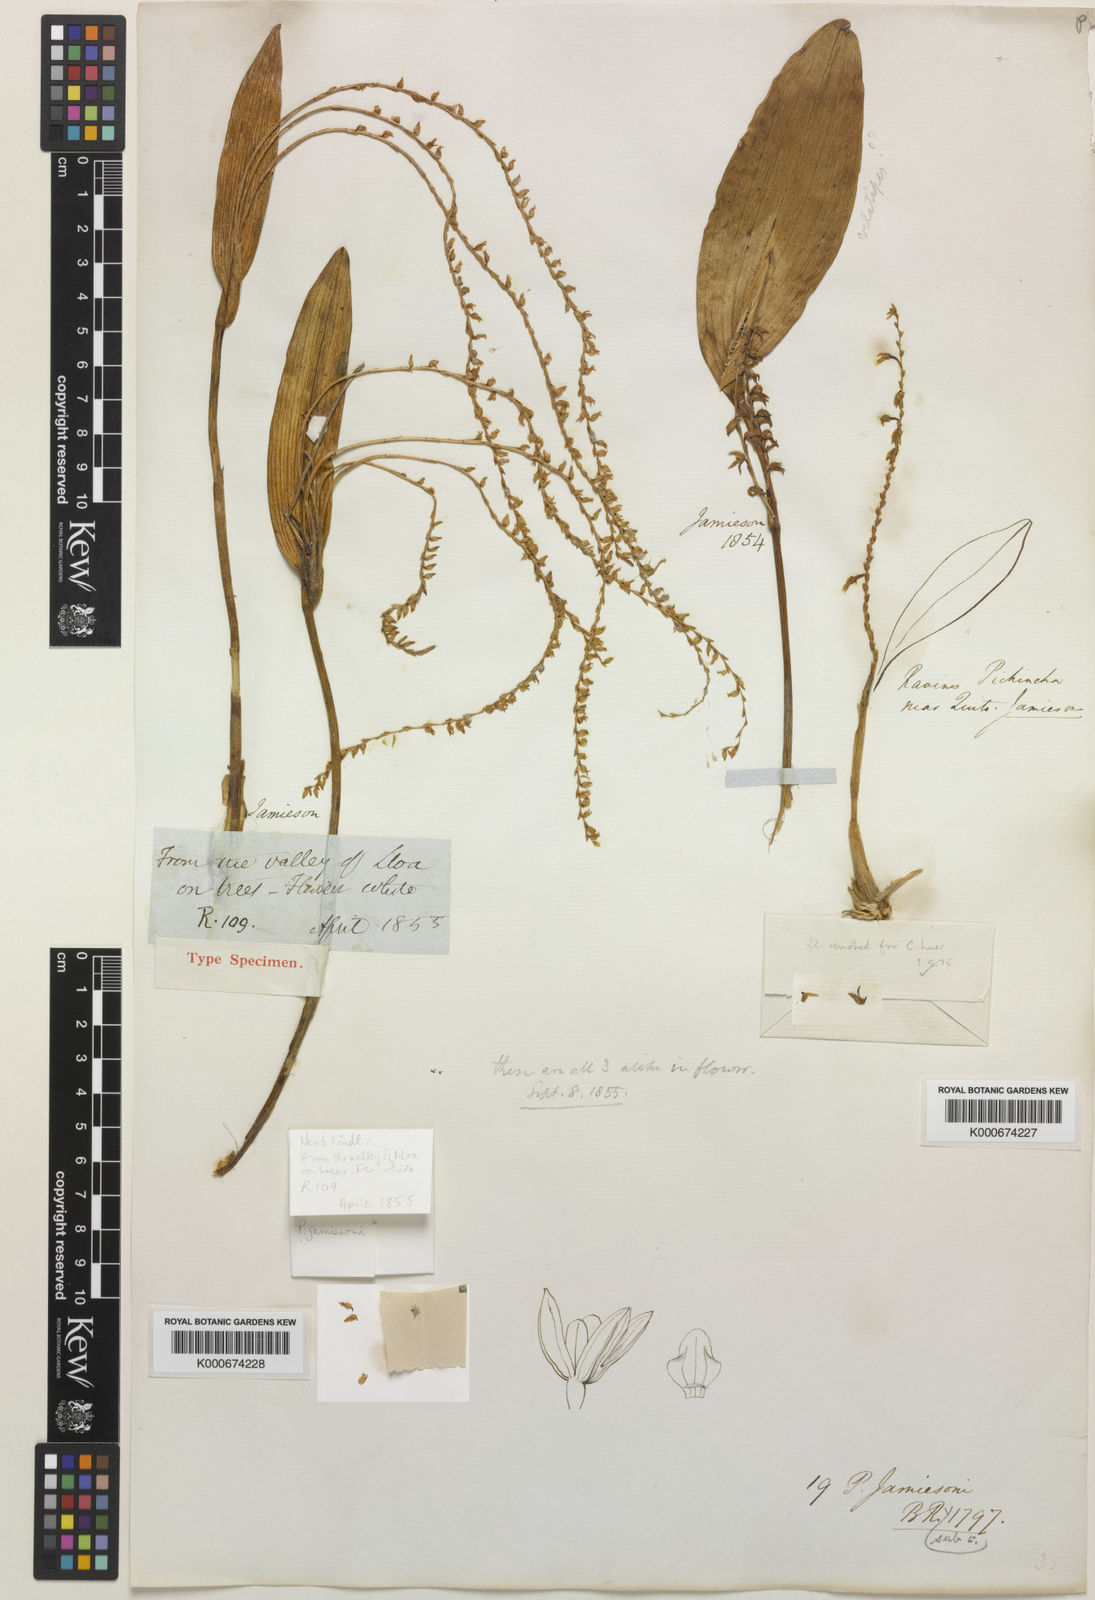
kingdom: Plantae
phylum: Tracheophyta
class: Liliopsida
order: Asparagales
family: Orchidaceae
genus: Stelis
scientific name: Stelis sagittata
